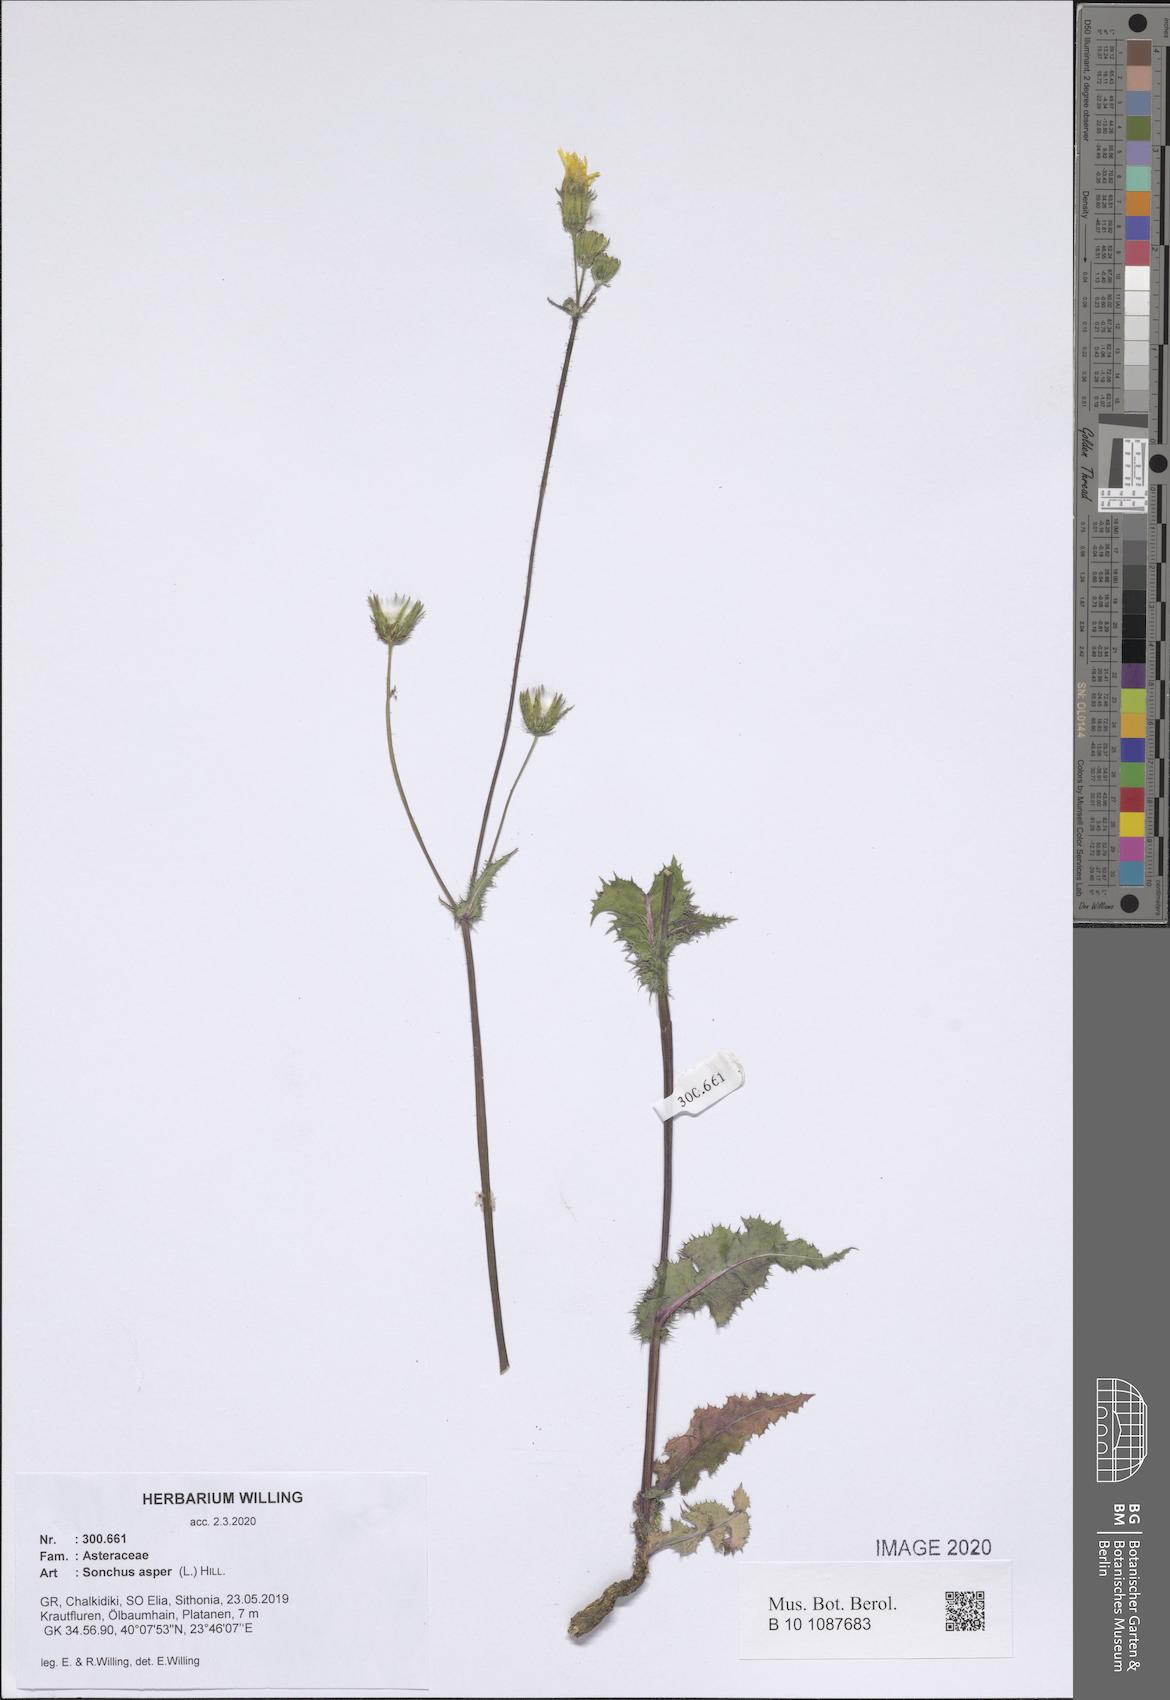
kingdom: Plantae
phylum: Tracheophyta
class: Magnoliopsida
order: Asterales
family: Asteraceae
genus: Sonchus
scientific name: Sonchus asper
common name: Prickly sow-thistle
